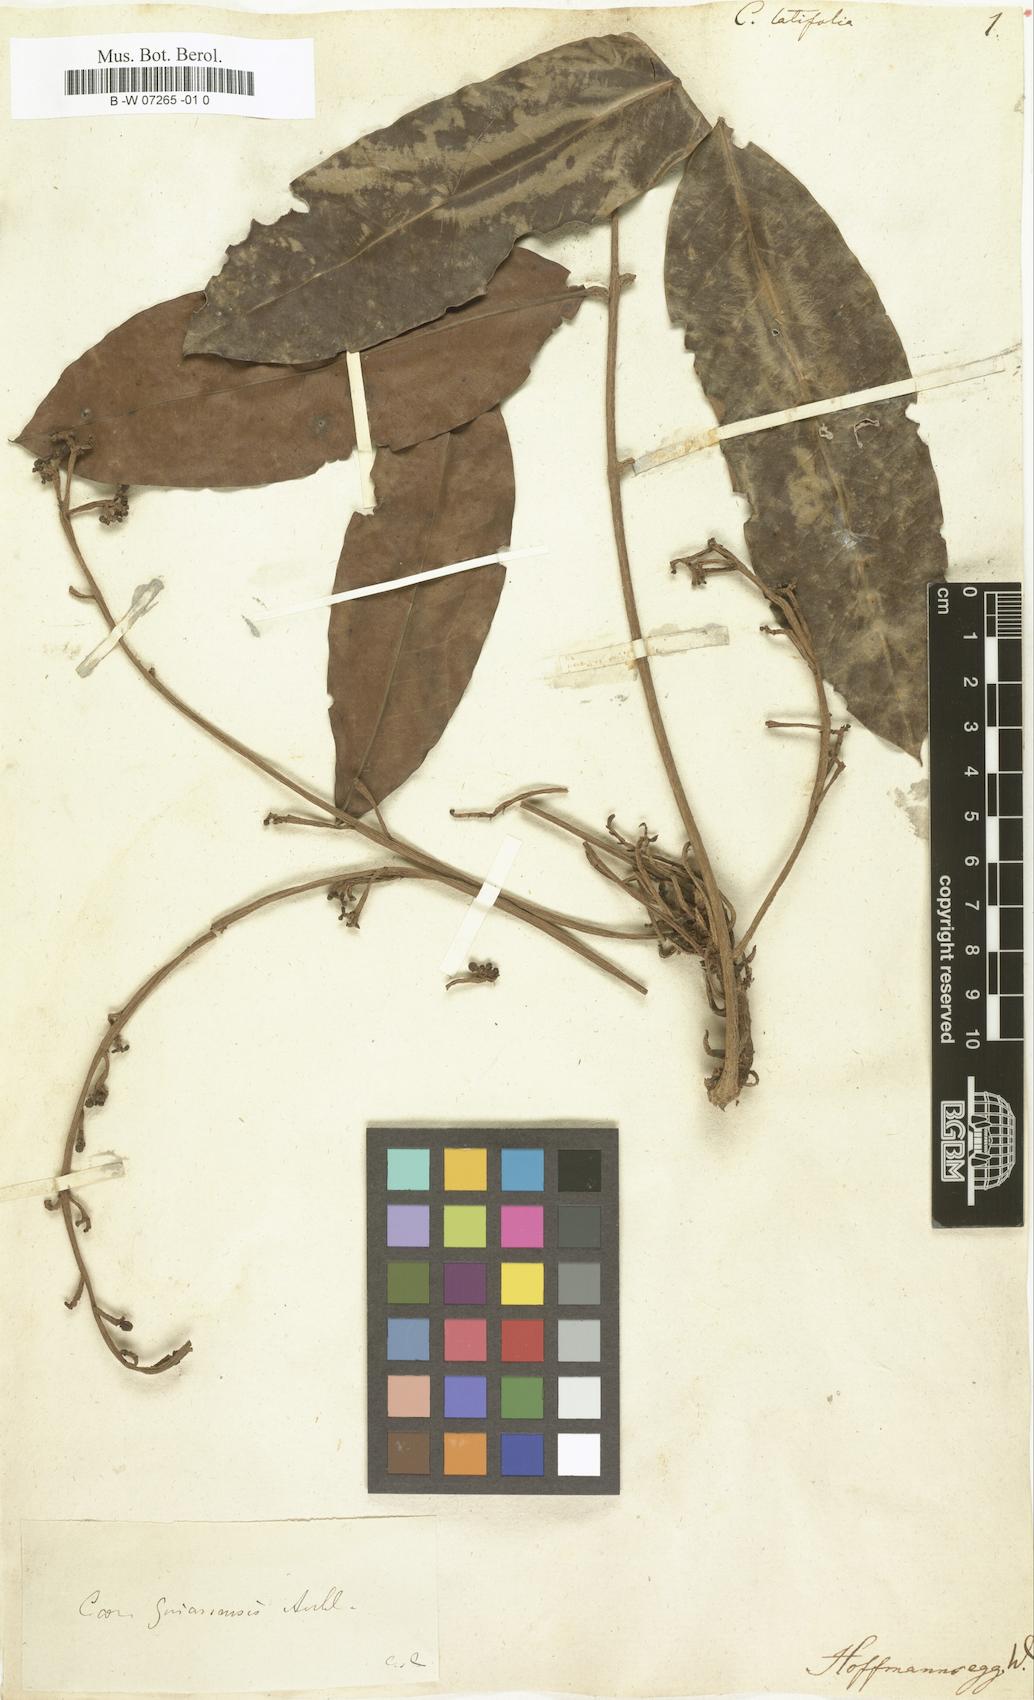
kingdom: Plantae
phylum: Tracheophyta
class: Magnoliopsida
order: Sapindales
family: Meliaceae
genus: Carapa
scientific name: Carapa guianensis
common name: Crabwood
